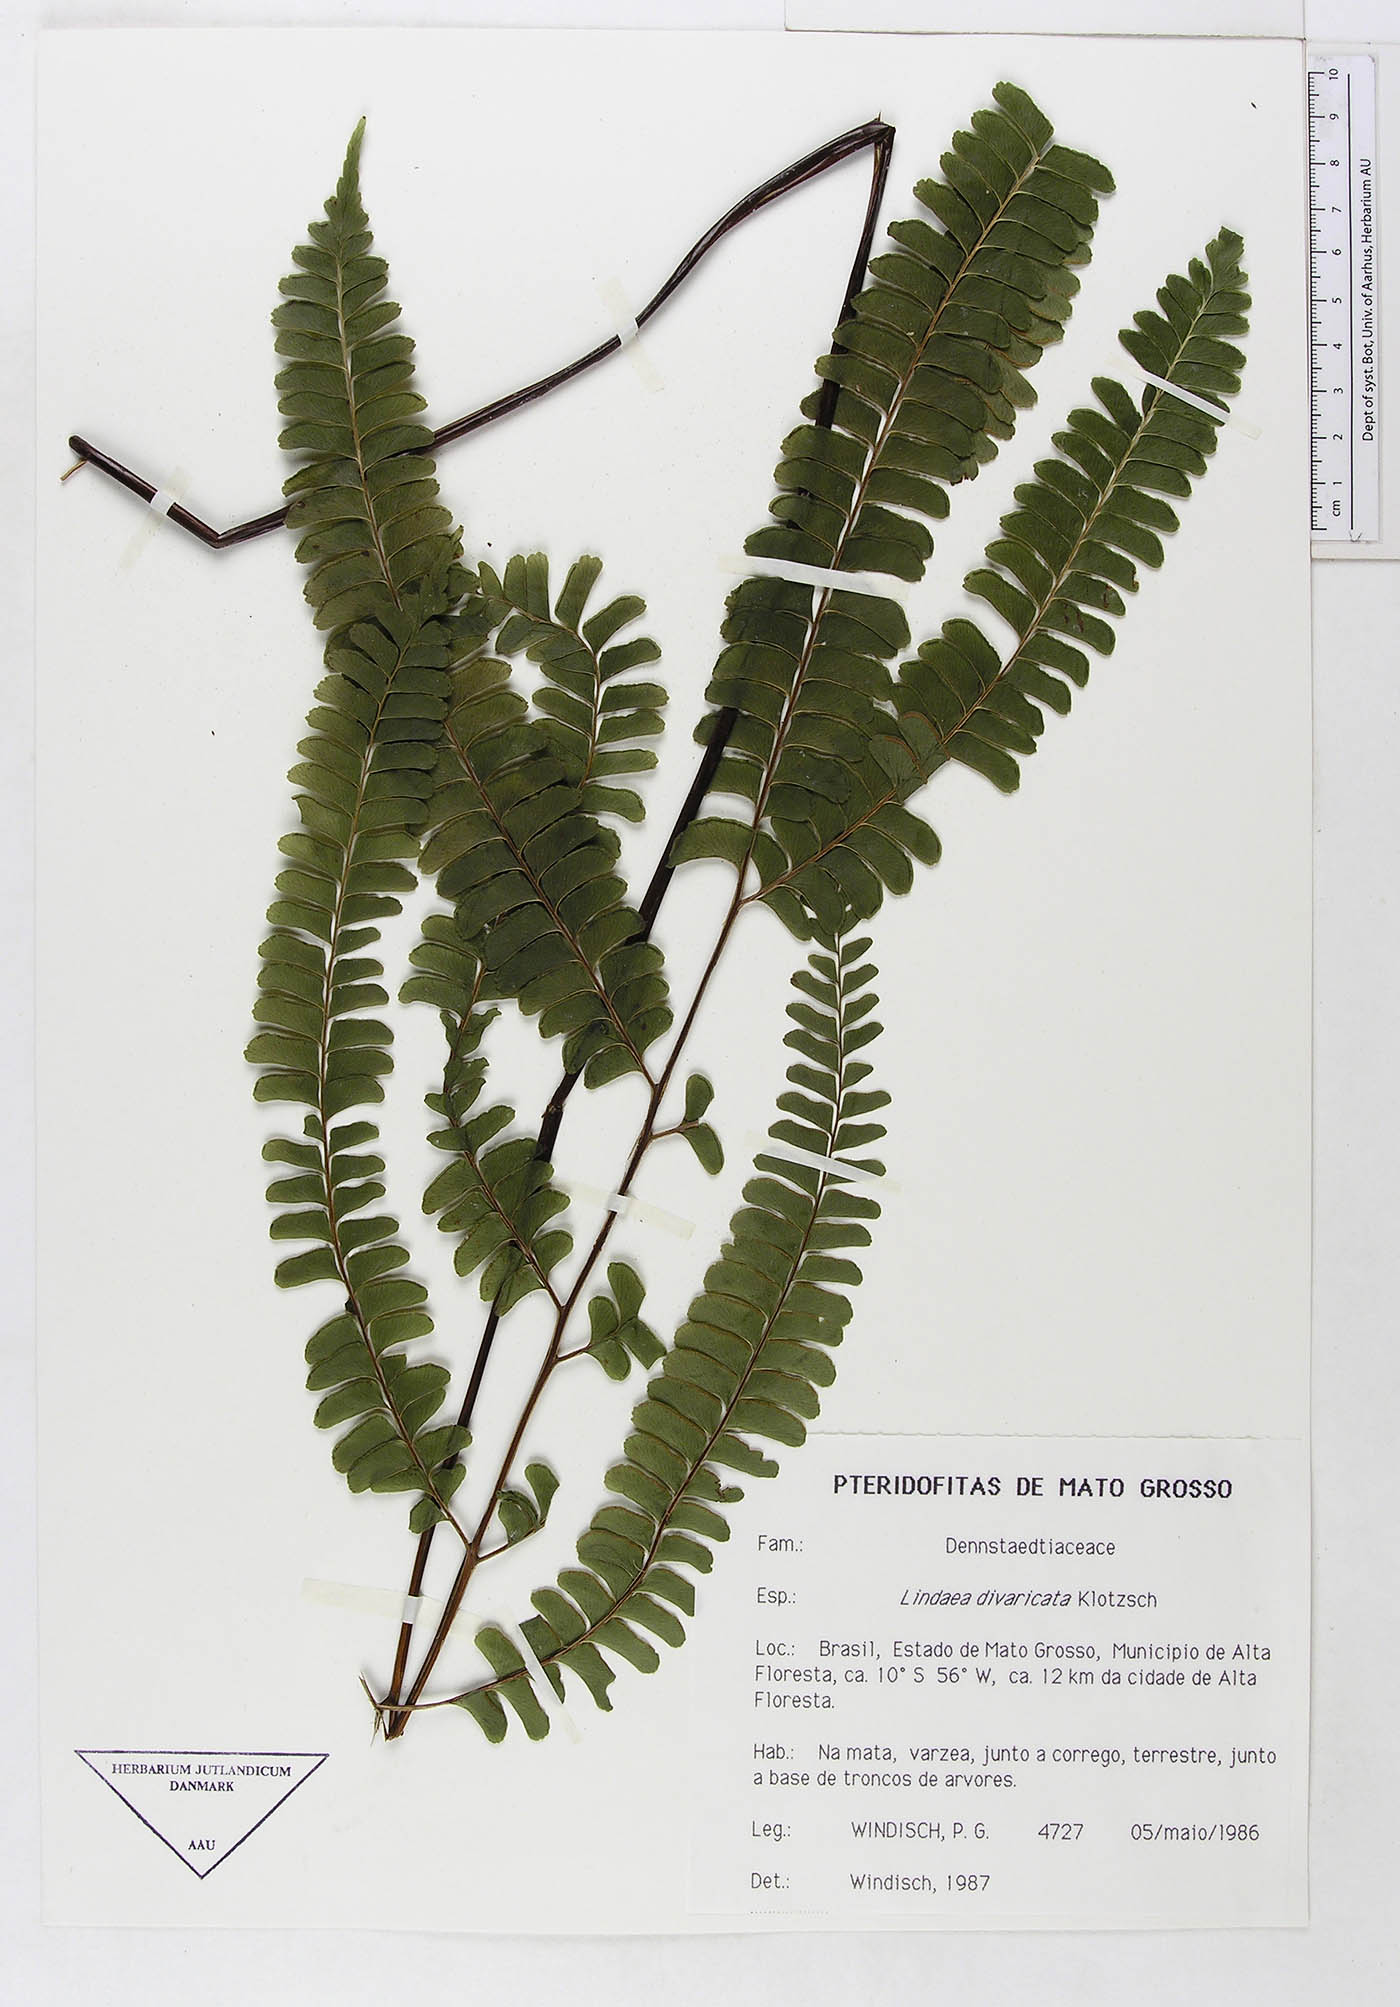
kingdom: Plantae
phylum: Tracheophyta
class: Polypodiopsida
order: Polypodiales
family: Lindsaeaceae
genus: Lindsaea
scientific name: Lindsaea divaricata
